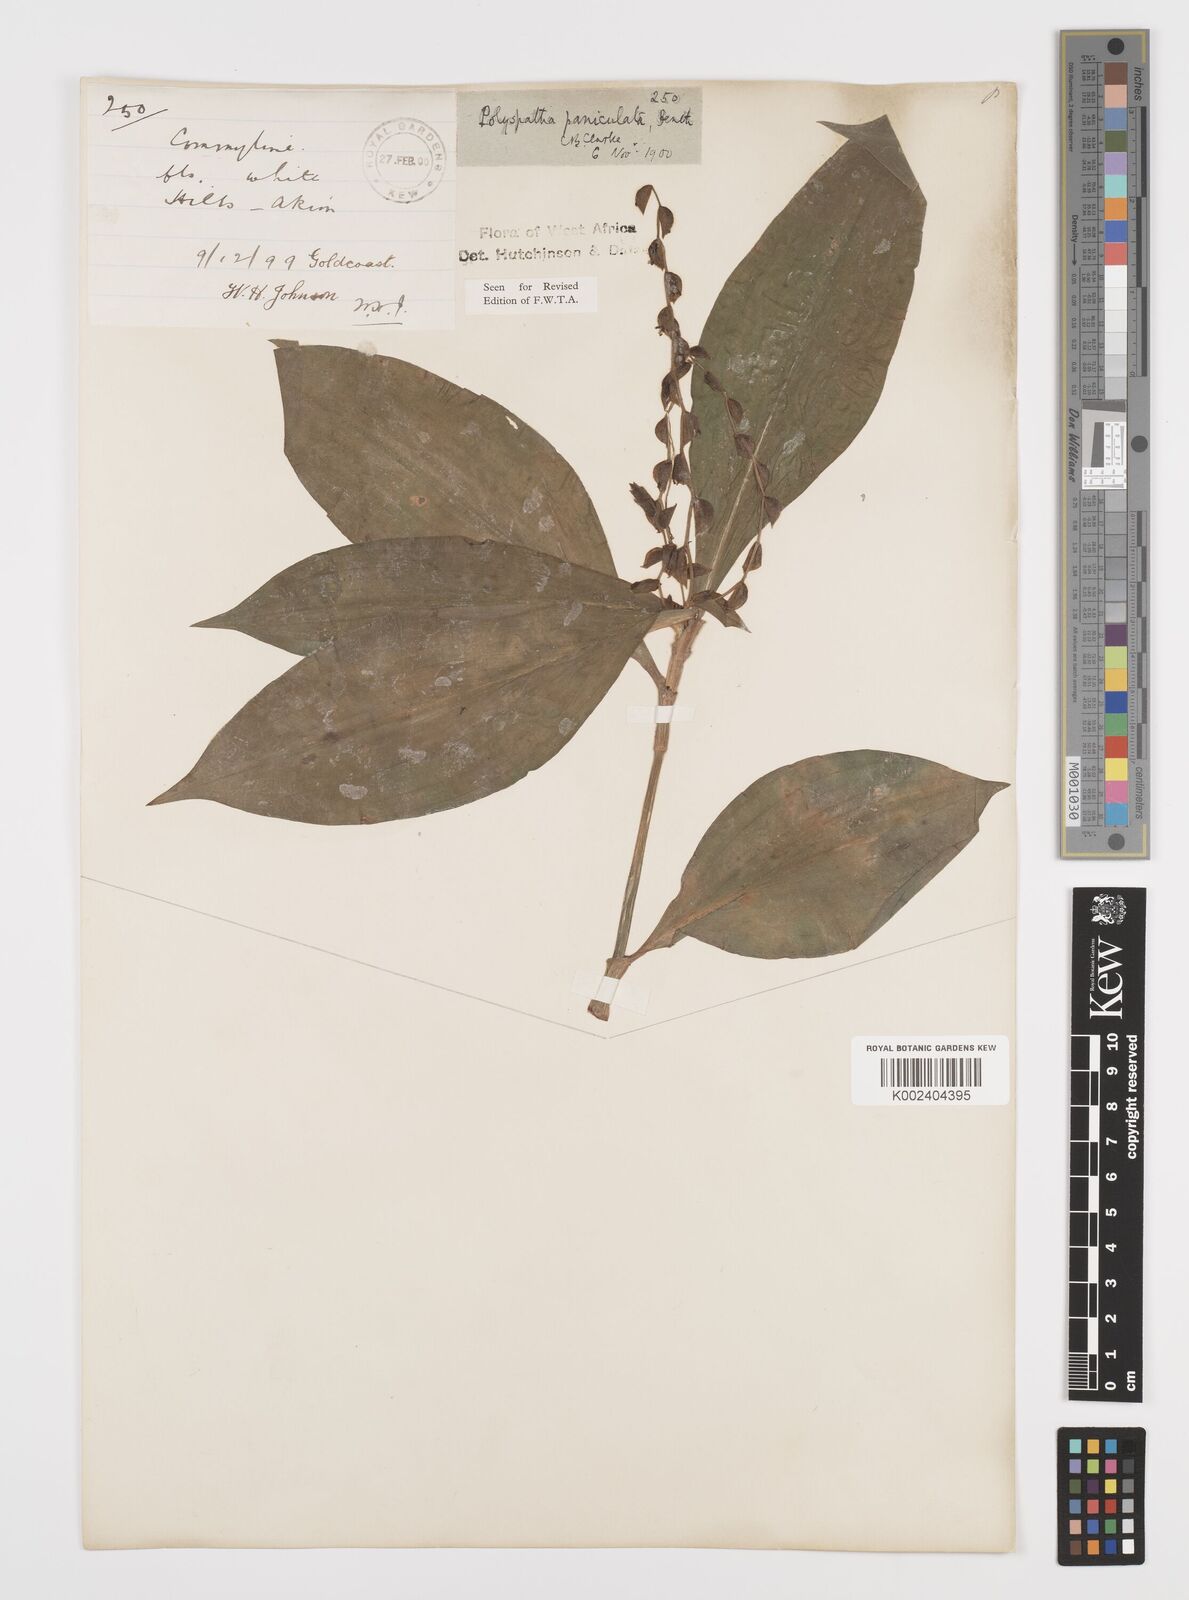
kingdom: Plantae
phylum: Tracheophyta
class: Liliopsida
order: Commelinales
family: Commelinaceae
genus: Polyspatha
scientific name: Polyspatha paniculata
